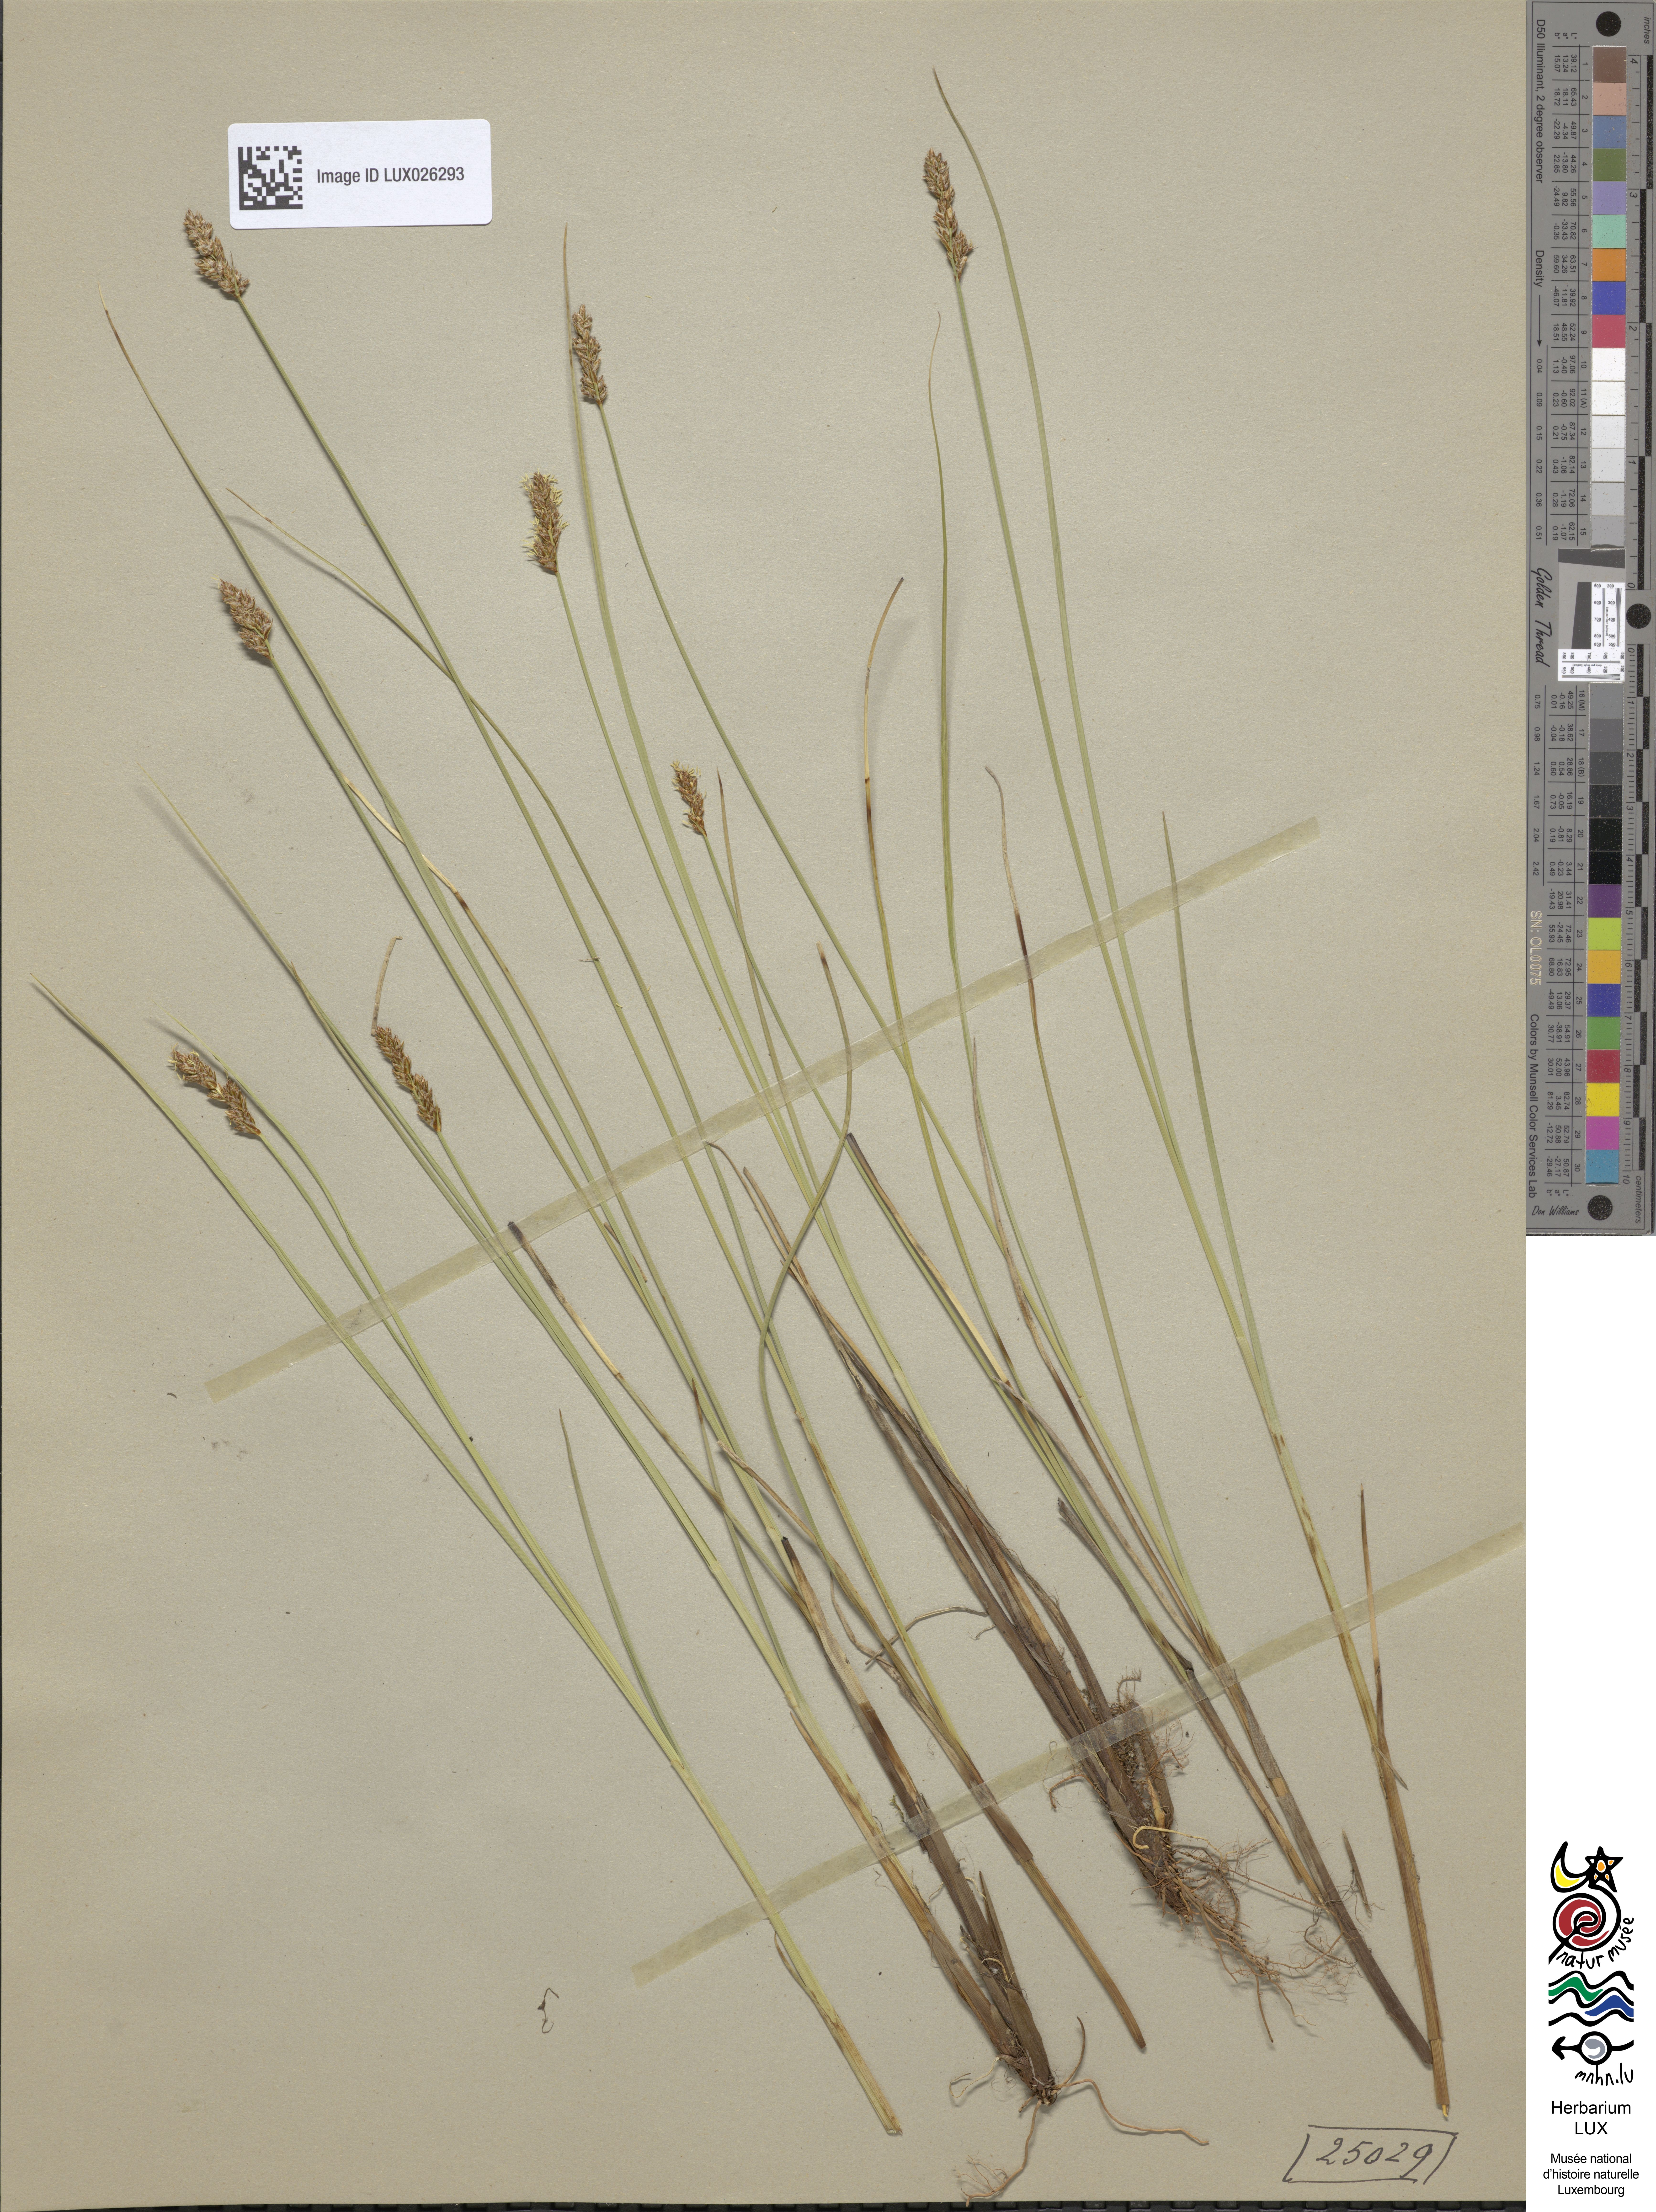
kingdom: Plantae
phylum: Tracheophyta
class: Liliopsida
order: Poales
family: Cyperaceae
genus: Carex
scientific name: Carex diandra
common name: Lesser tussock-sedge
